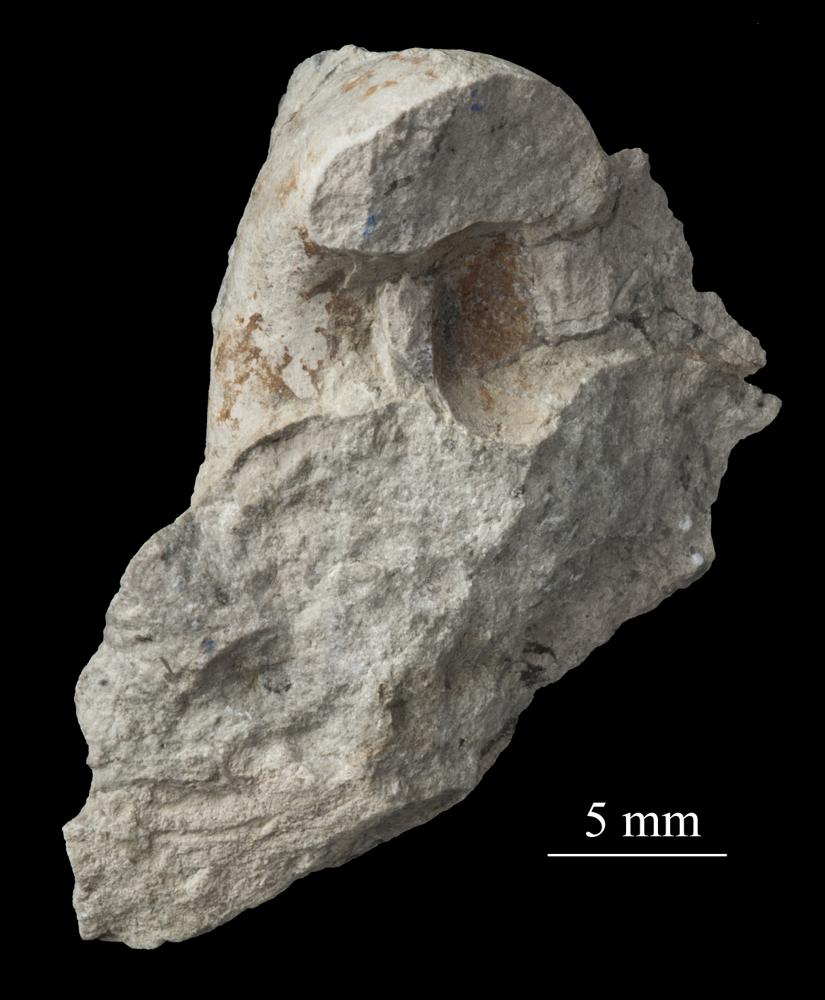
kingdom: Animalia
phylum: Mollusca
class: Gastropoda
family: Bellerophontidae
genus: Bellerophon
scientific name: Bellerophon
